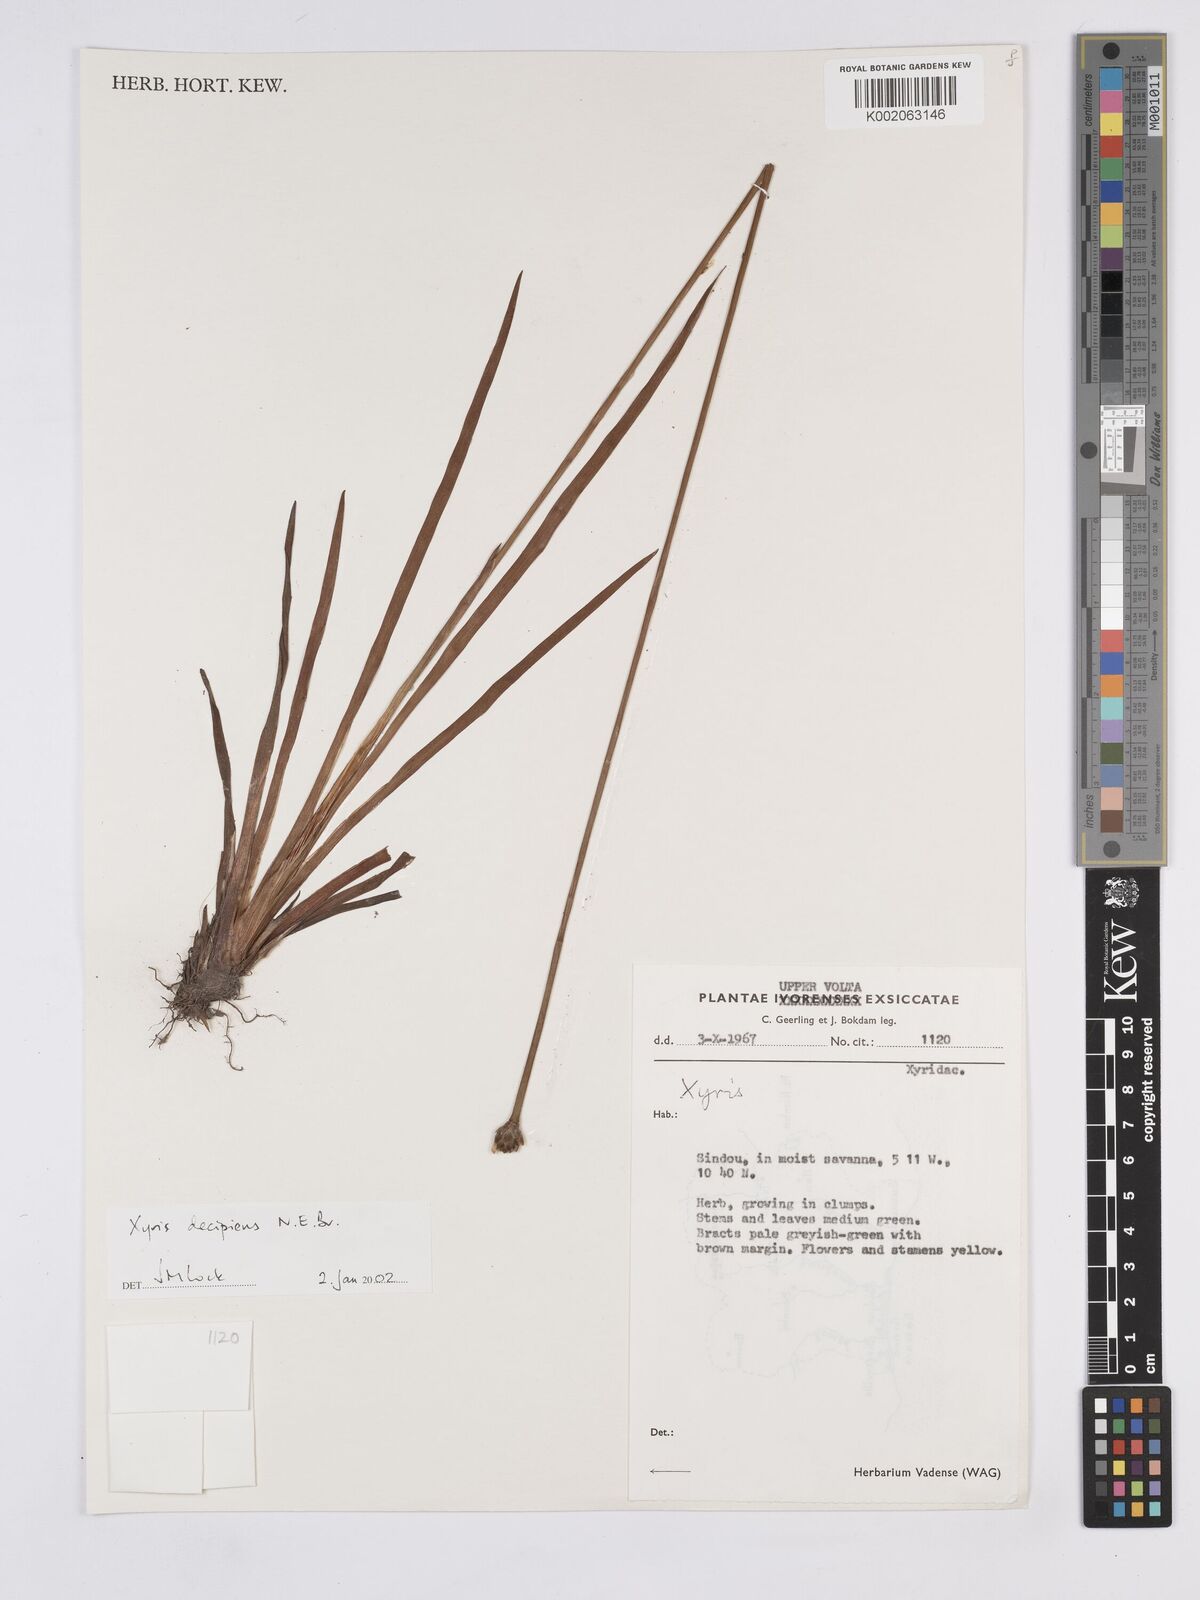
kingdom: Plantae
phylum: Tracheophyta
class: Liliopsida
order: Poales
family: Xyridaceae
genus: Xyris
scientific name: Xyris decipiens
